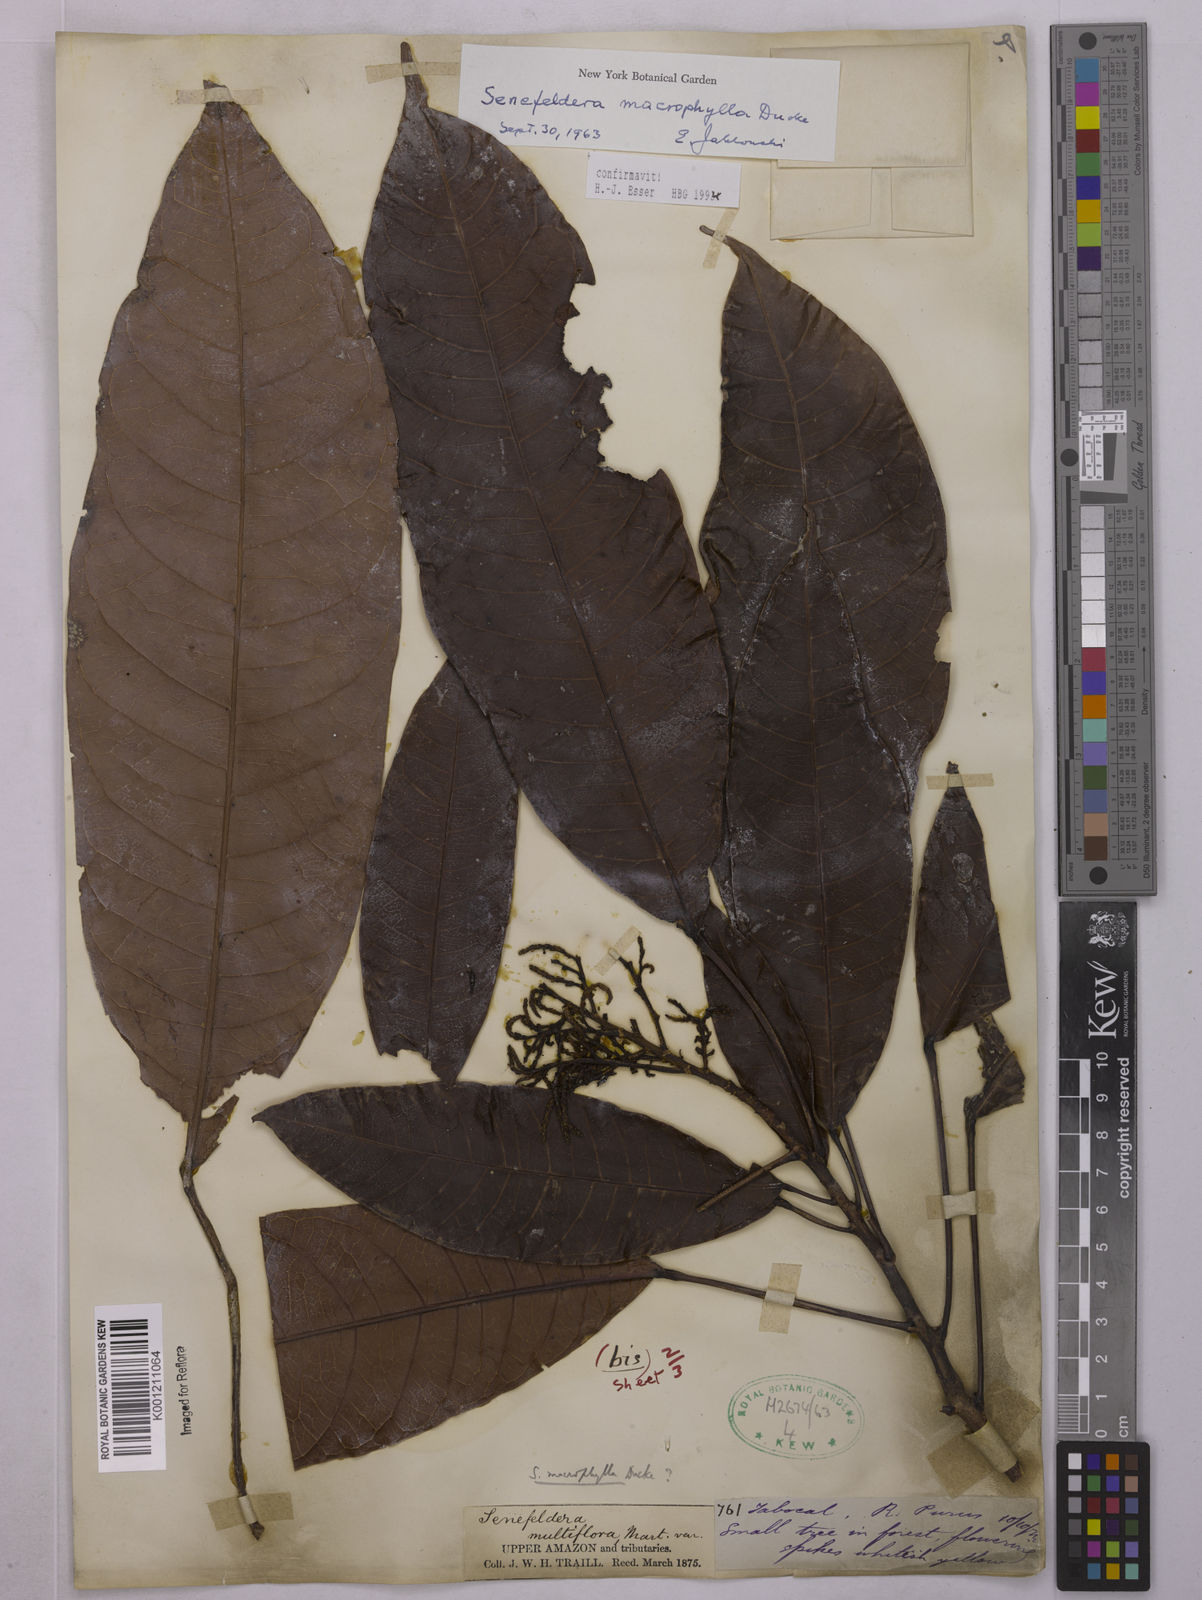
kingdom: Plantae
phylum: Tracheophyta
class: Magnoliopsida
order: Malpighiales
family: Euphorbiaceae
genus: Rhodothyrsus
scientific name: Rhodothyrsus macrophyllus
